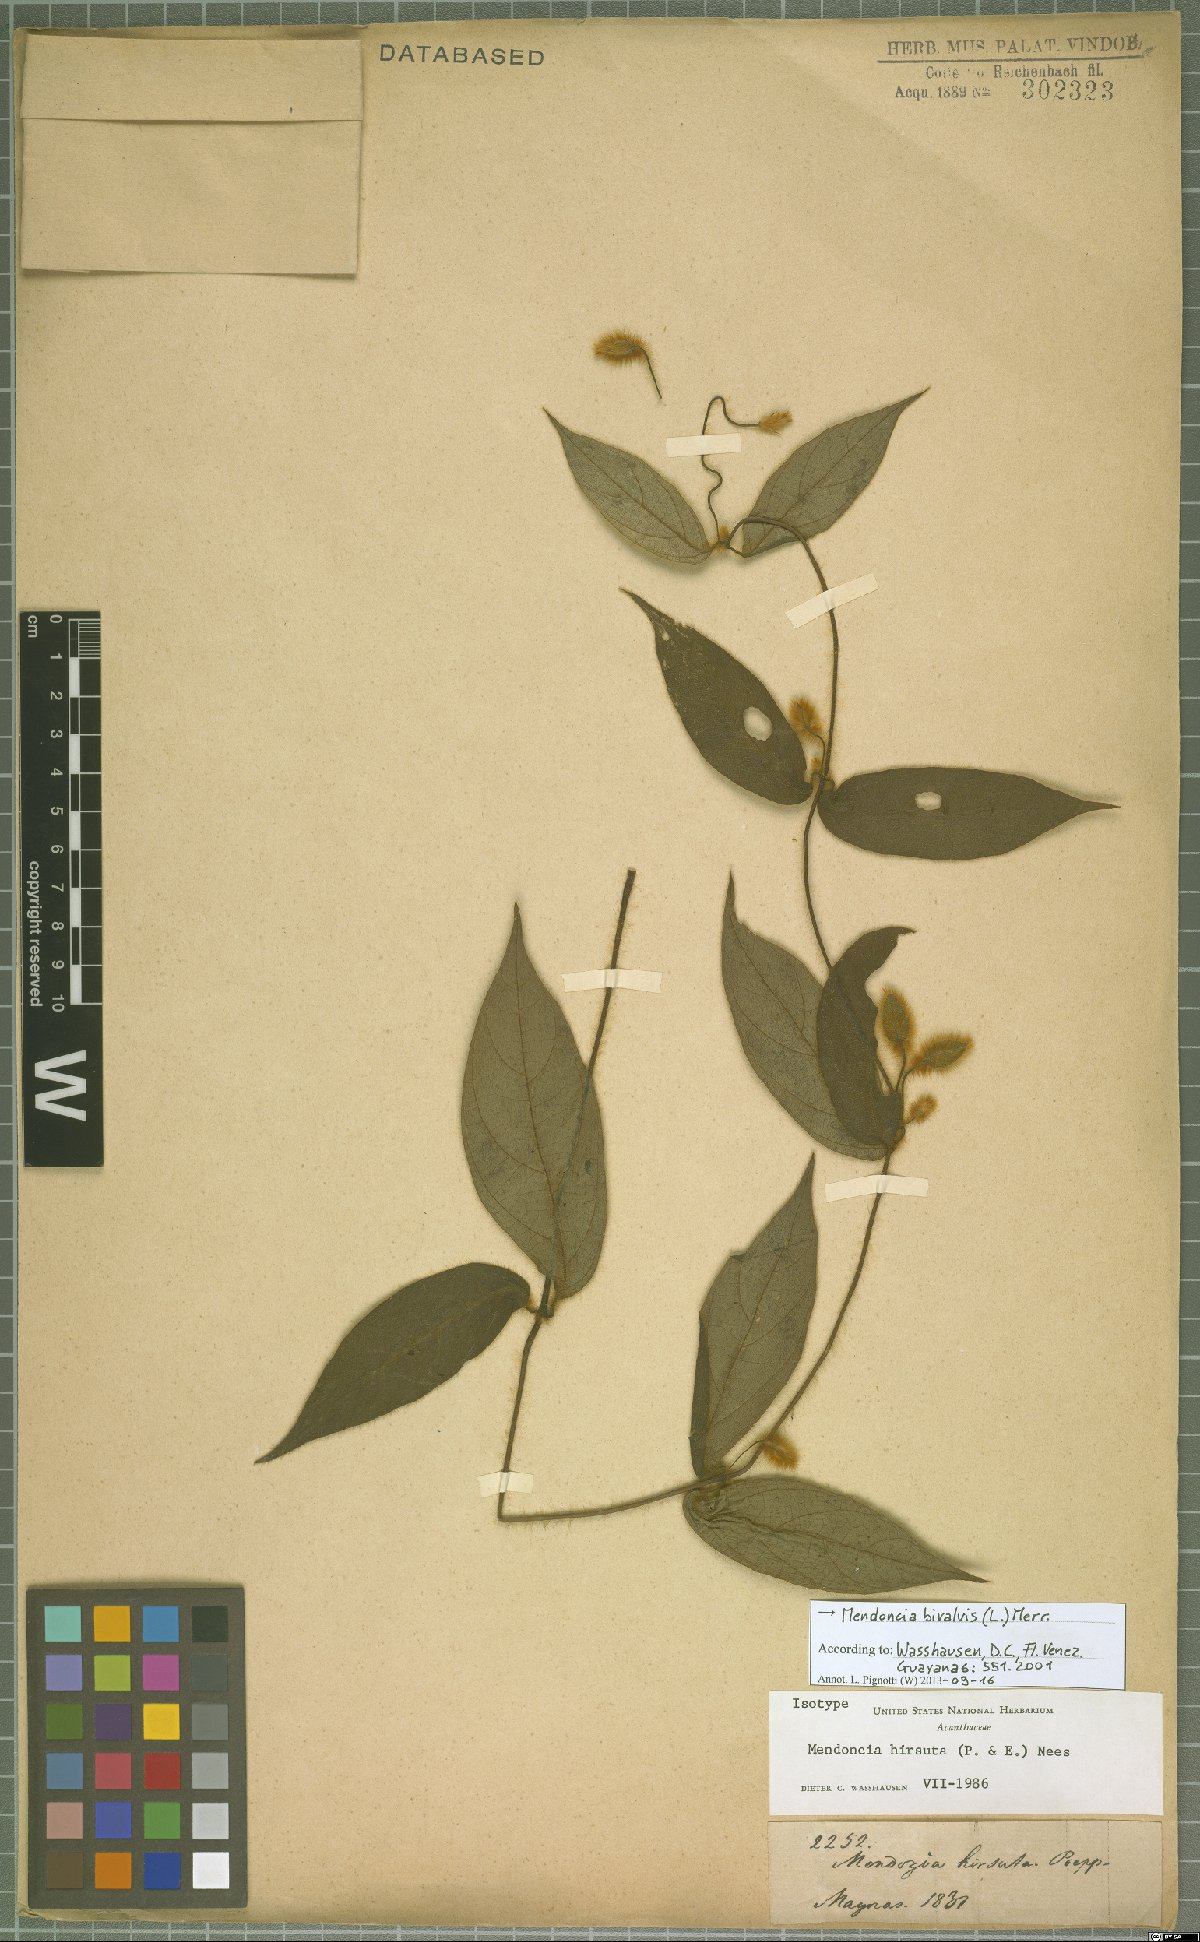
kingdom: Plantae
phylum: Tracheophyta
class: Magnoliopsida
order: Lamiales
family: Acanthaceae
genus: Mendoncia
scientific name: Mendoncia bivalvis
